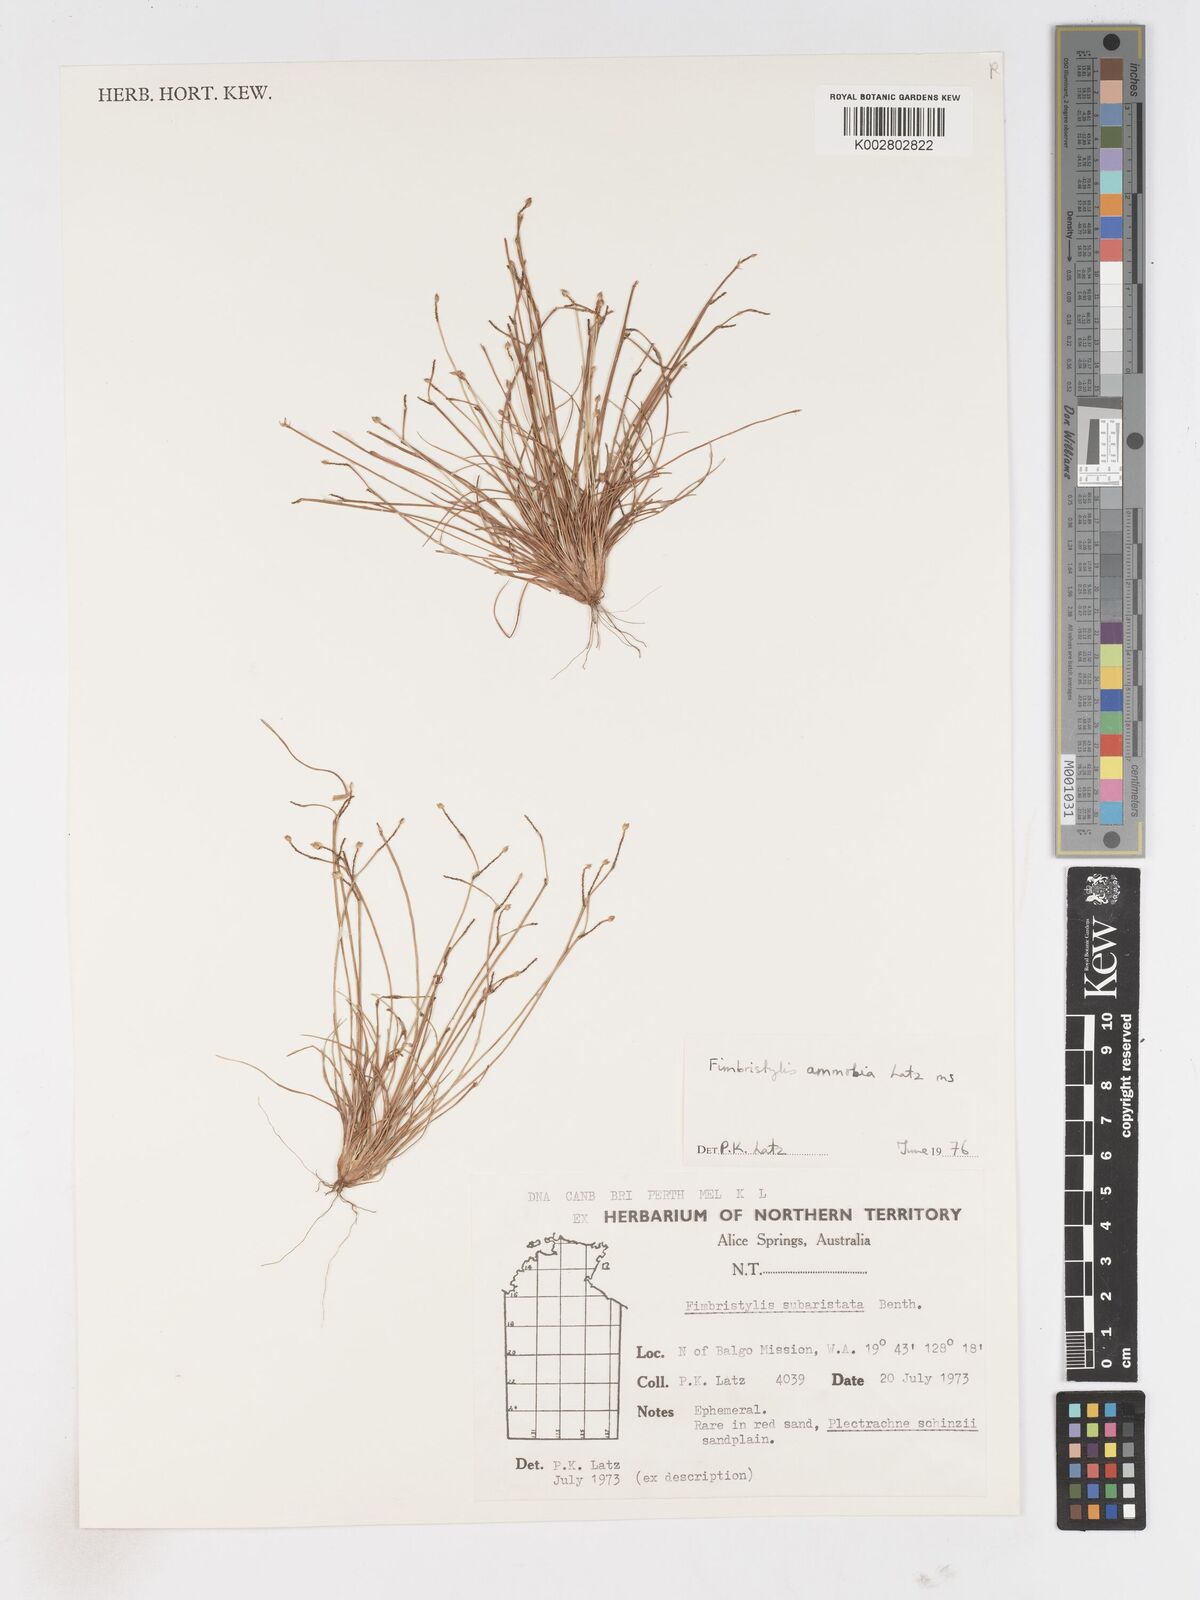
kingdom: Plantae
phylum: Tracheophyta
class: Liliopsida
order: Poales
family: Cyperaceae
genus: Fimbristylis
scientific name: Fimbristylis ammobia
